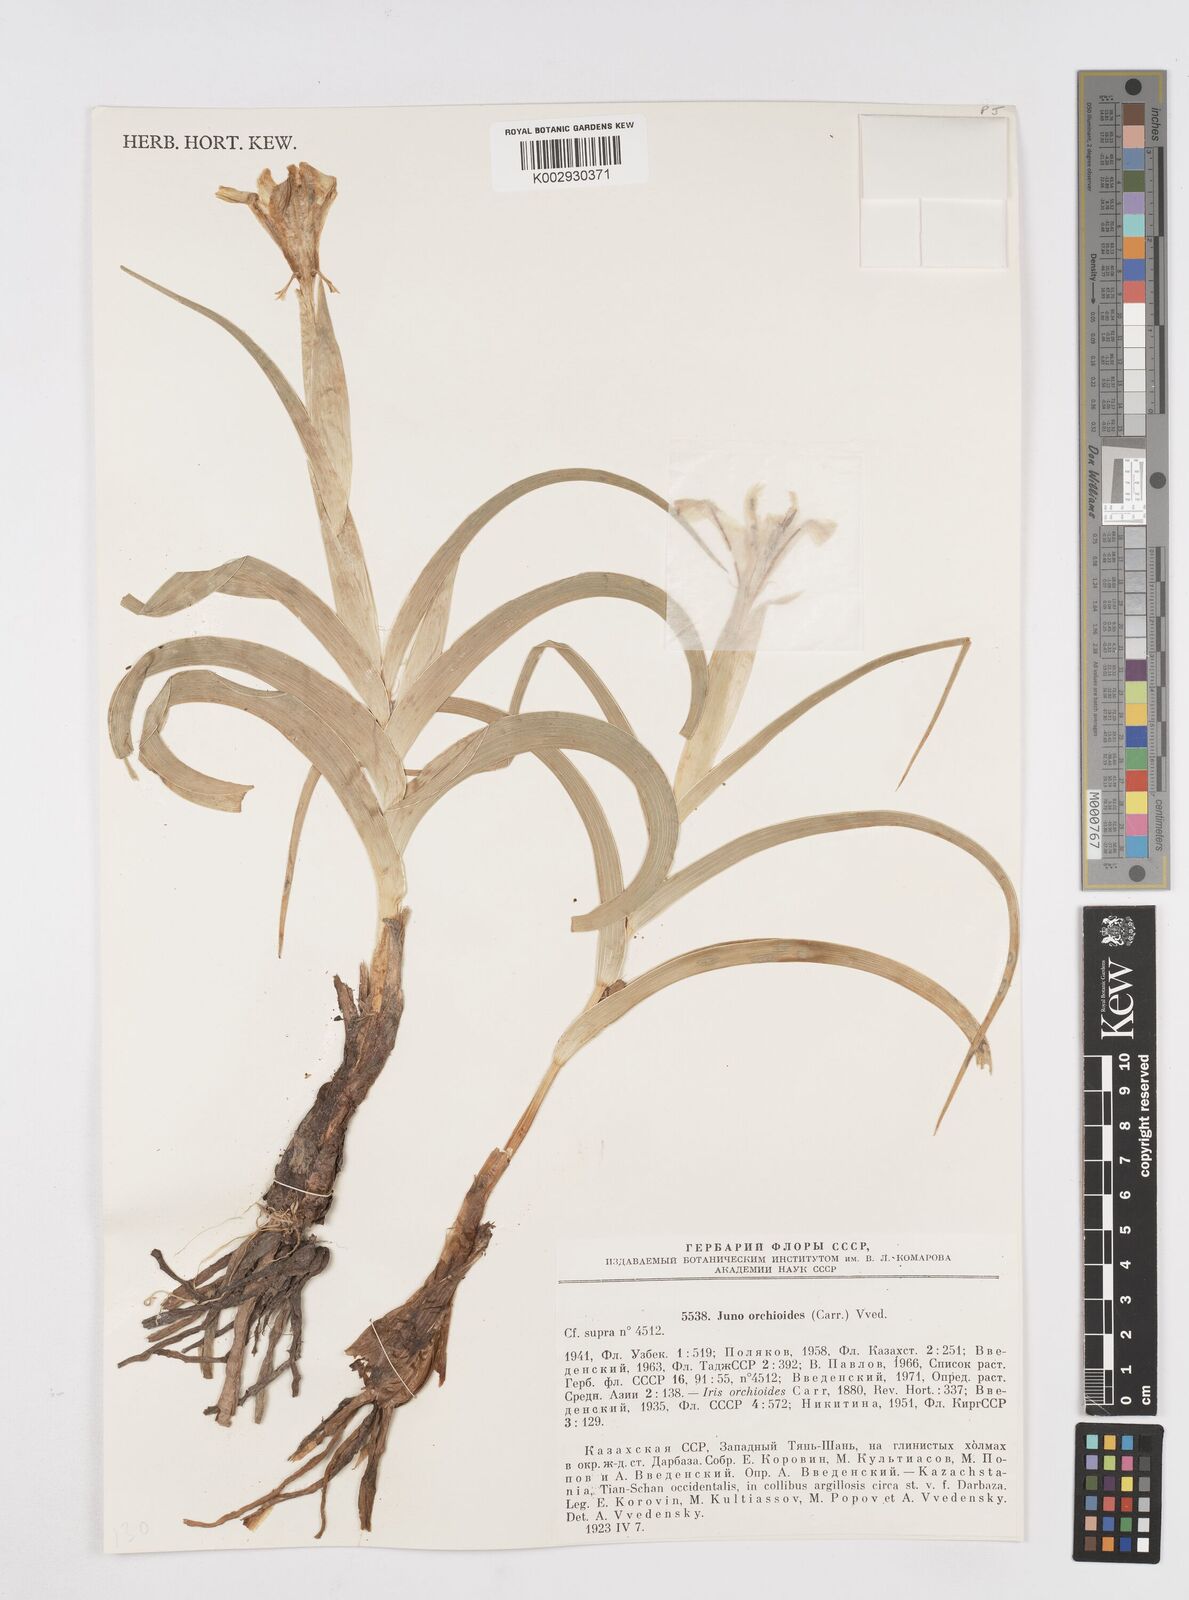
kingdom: Plantae
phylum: Tracheophyta
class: Liliopsida
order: Asparagales
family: Iridaceae
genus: Iris
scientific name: Iris orchioides
